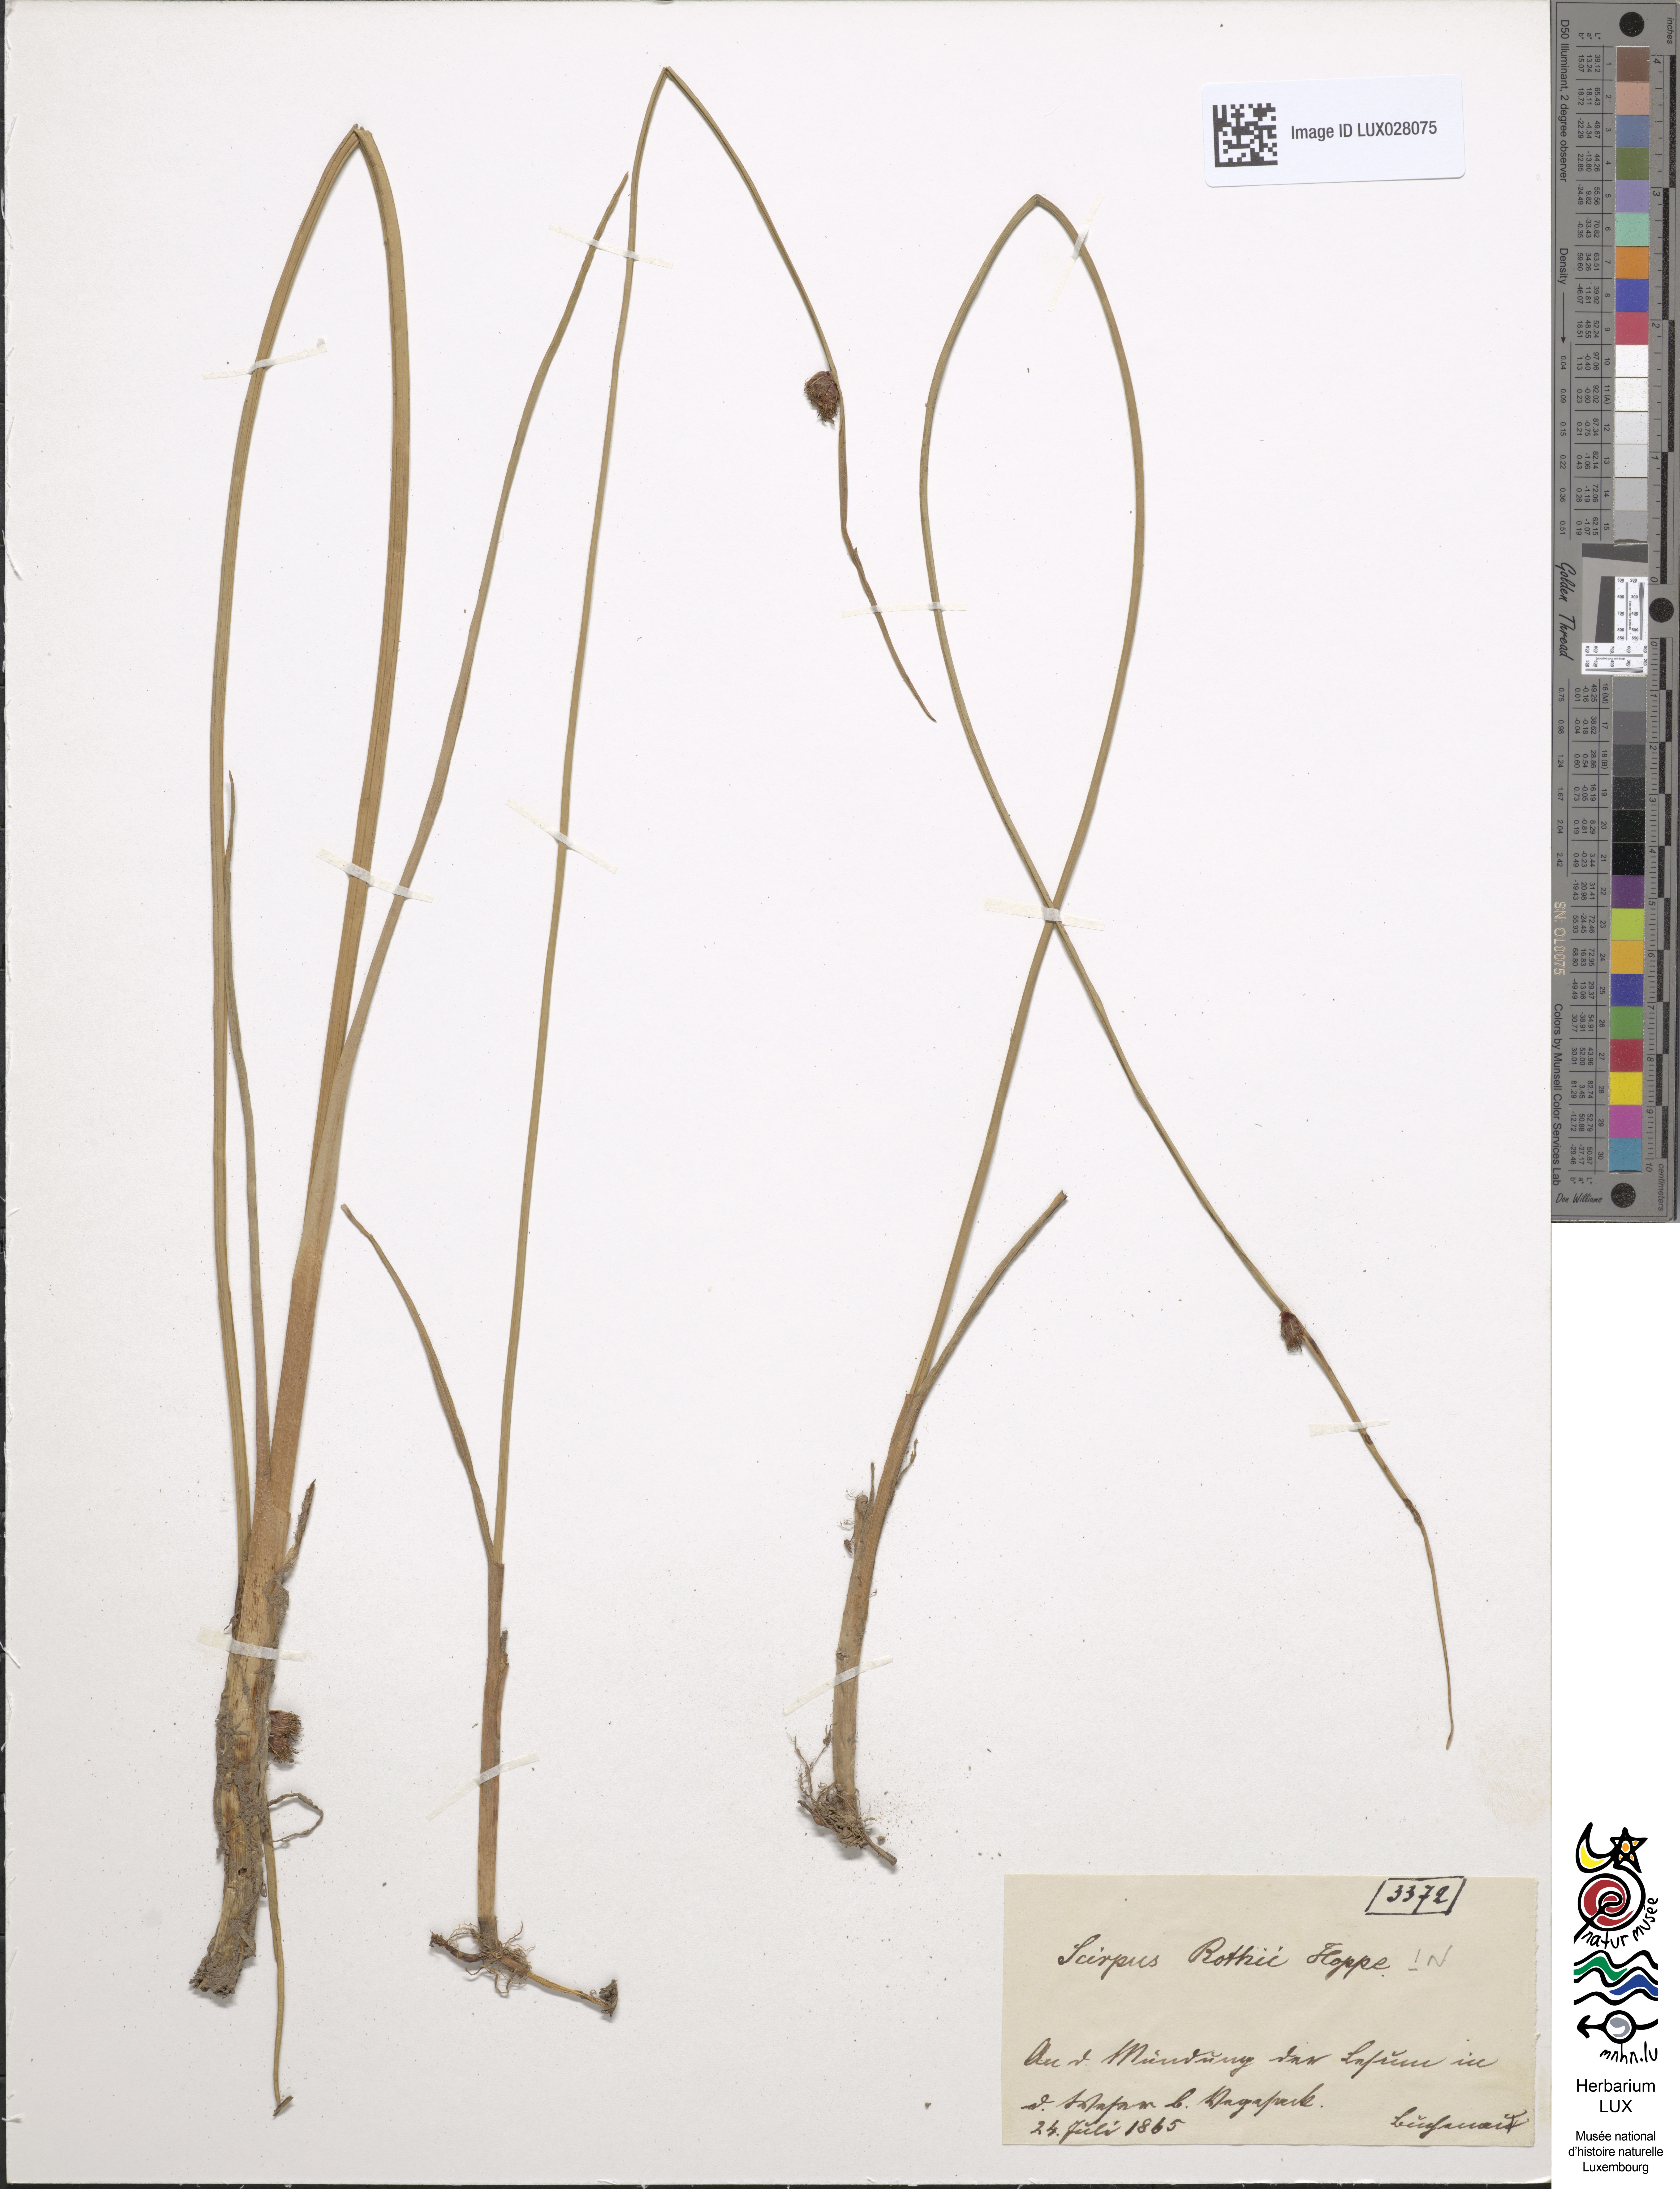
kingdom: Plantae
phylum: Tracheophyta
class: Liliopsida
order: Poales
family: Cyperaceae
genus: Schoenoplectus
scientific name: Schoenoplectus pungens
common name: Sharp club-rush
